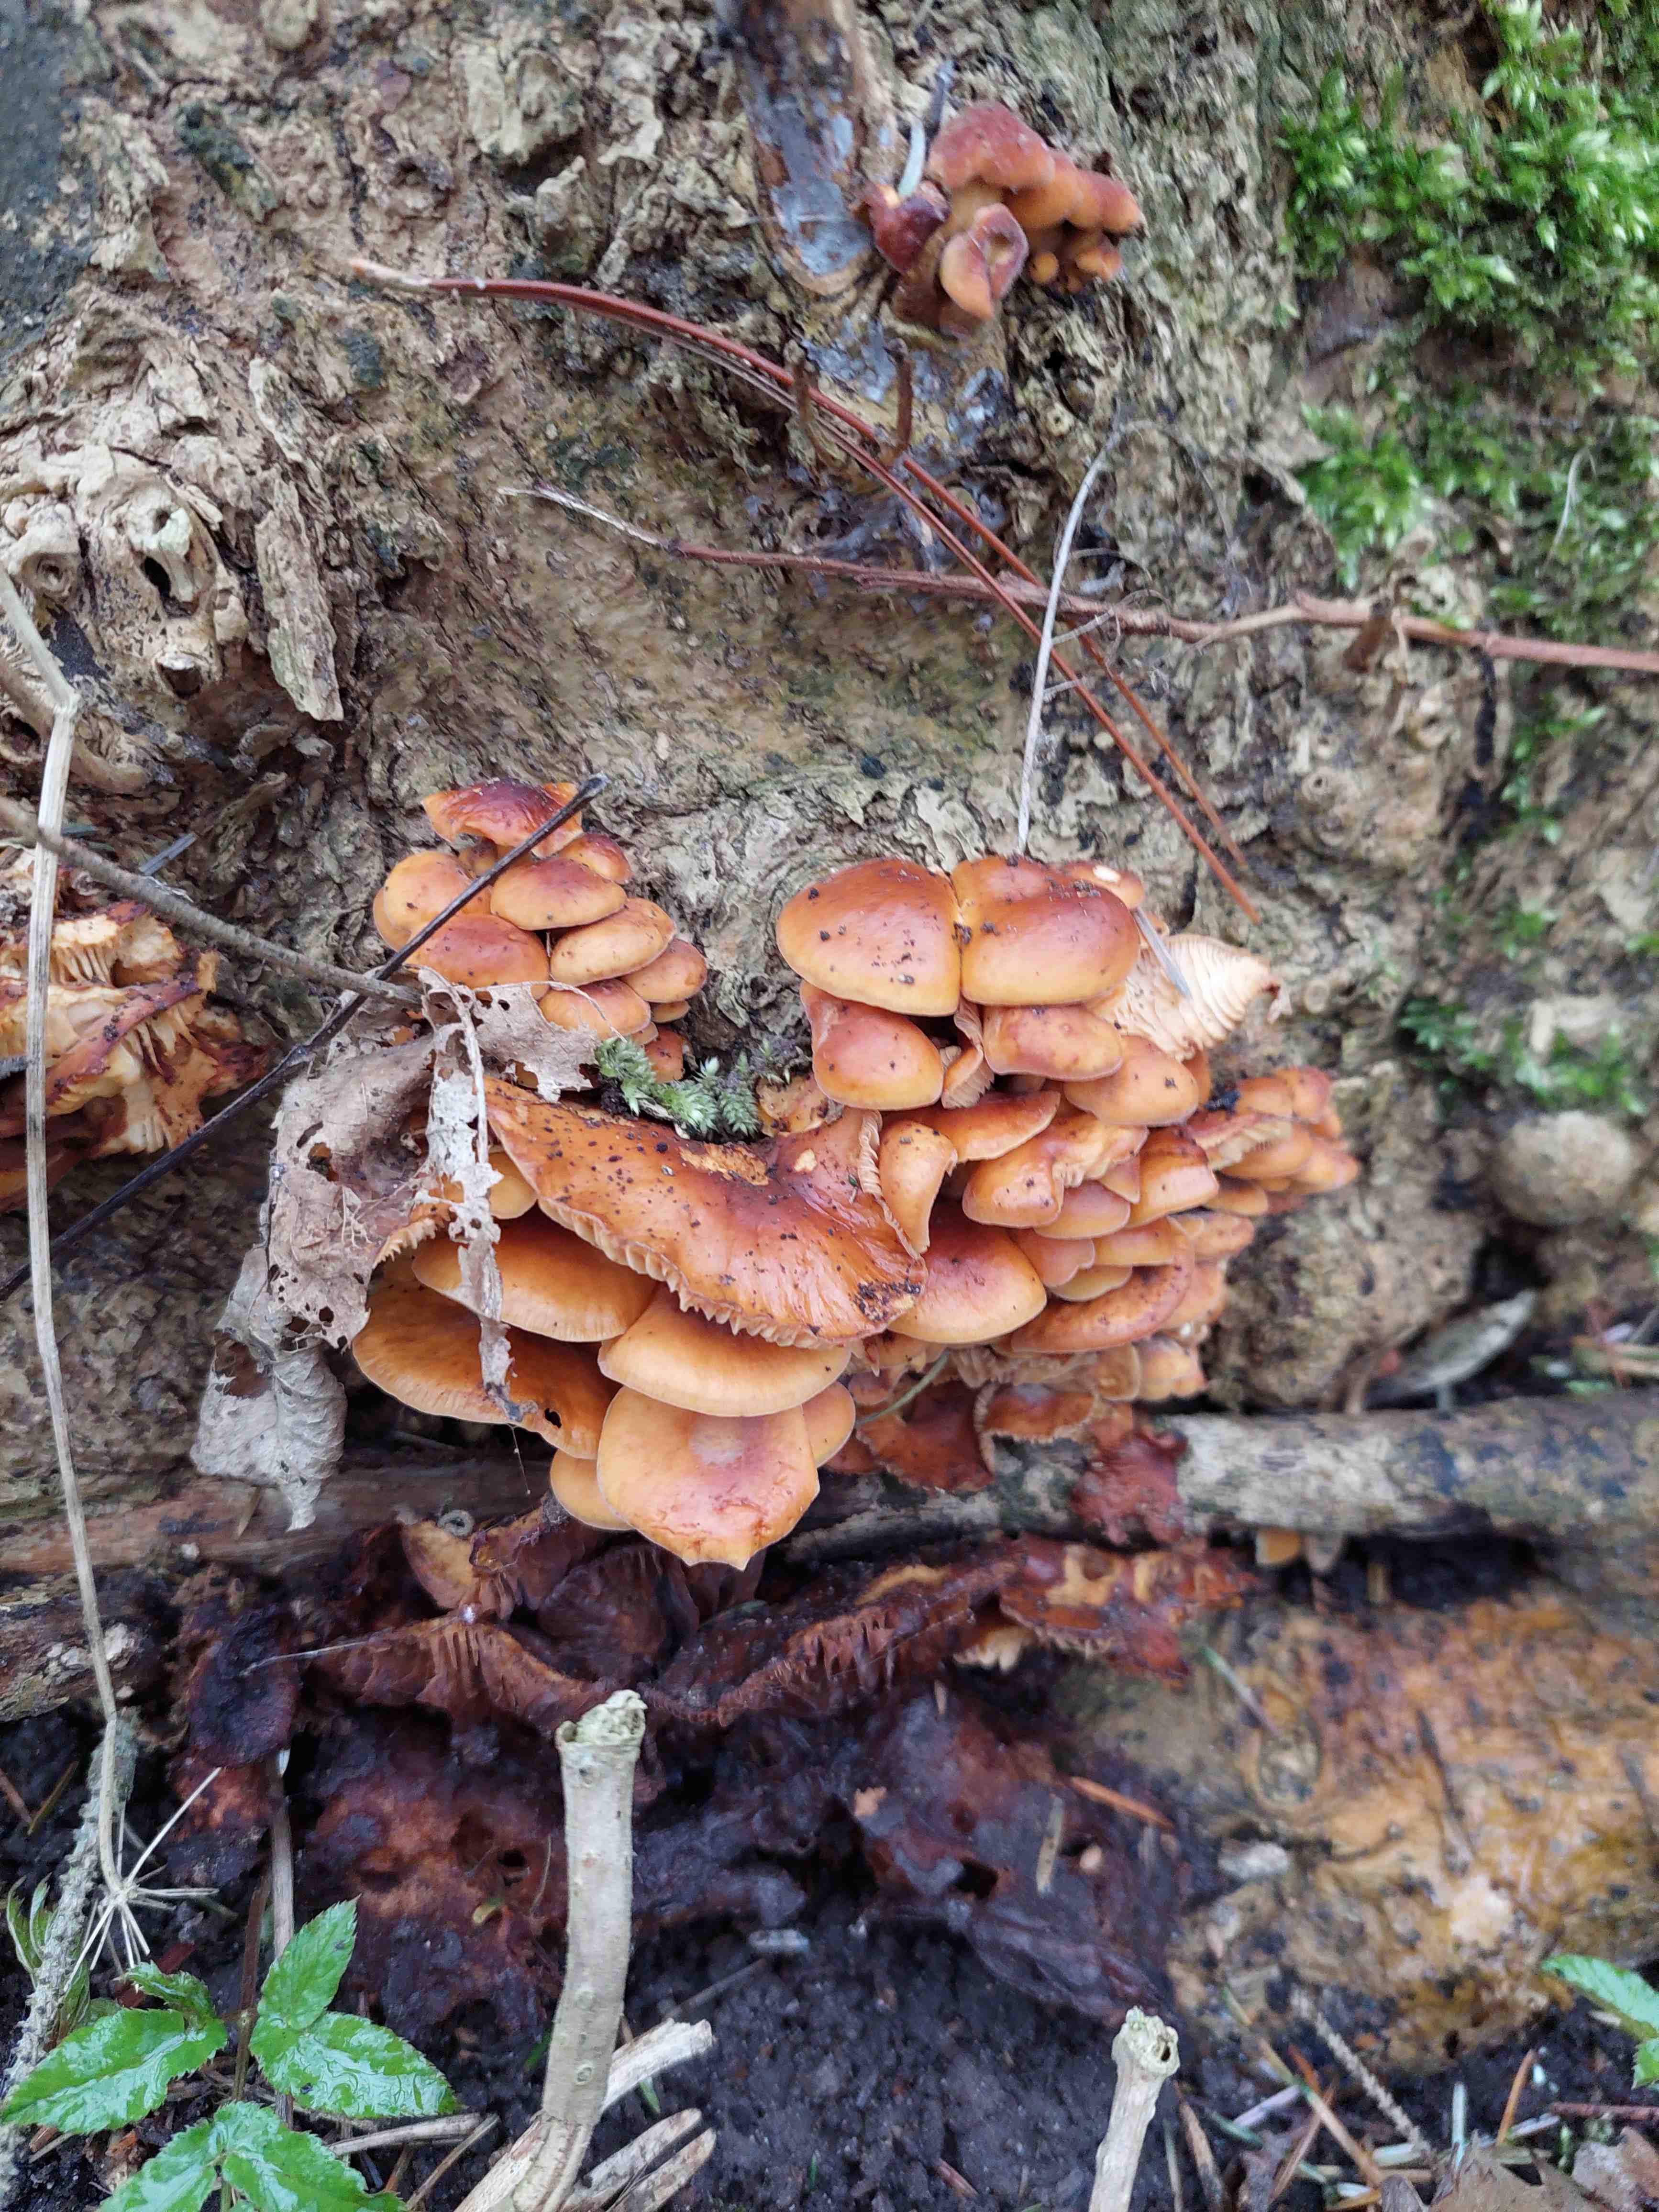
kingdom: Fungi
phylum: Basidiomycota
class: Agaricomycetes
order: Agaricales
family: Physalacriaceae
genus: Flammulina
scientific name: Flammulina
